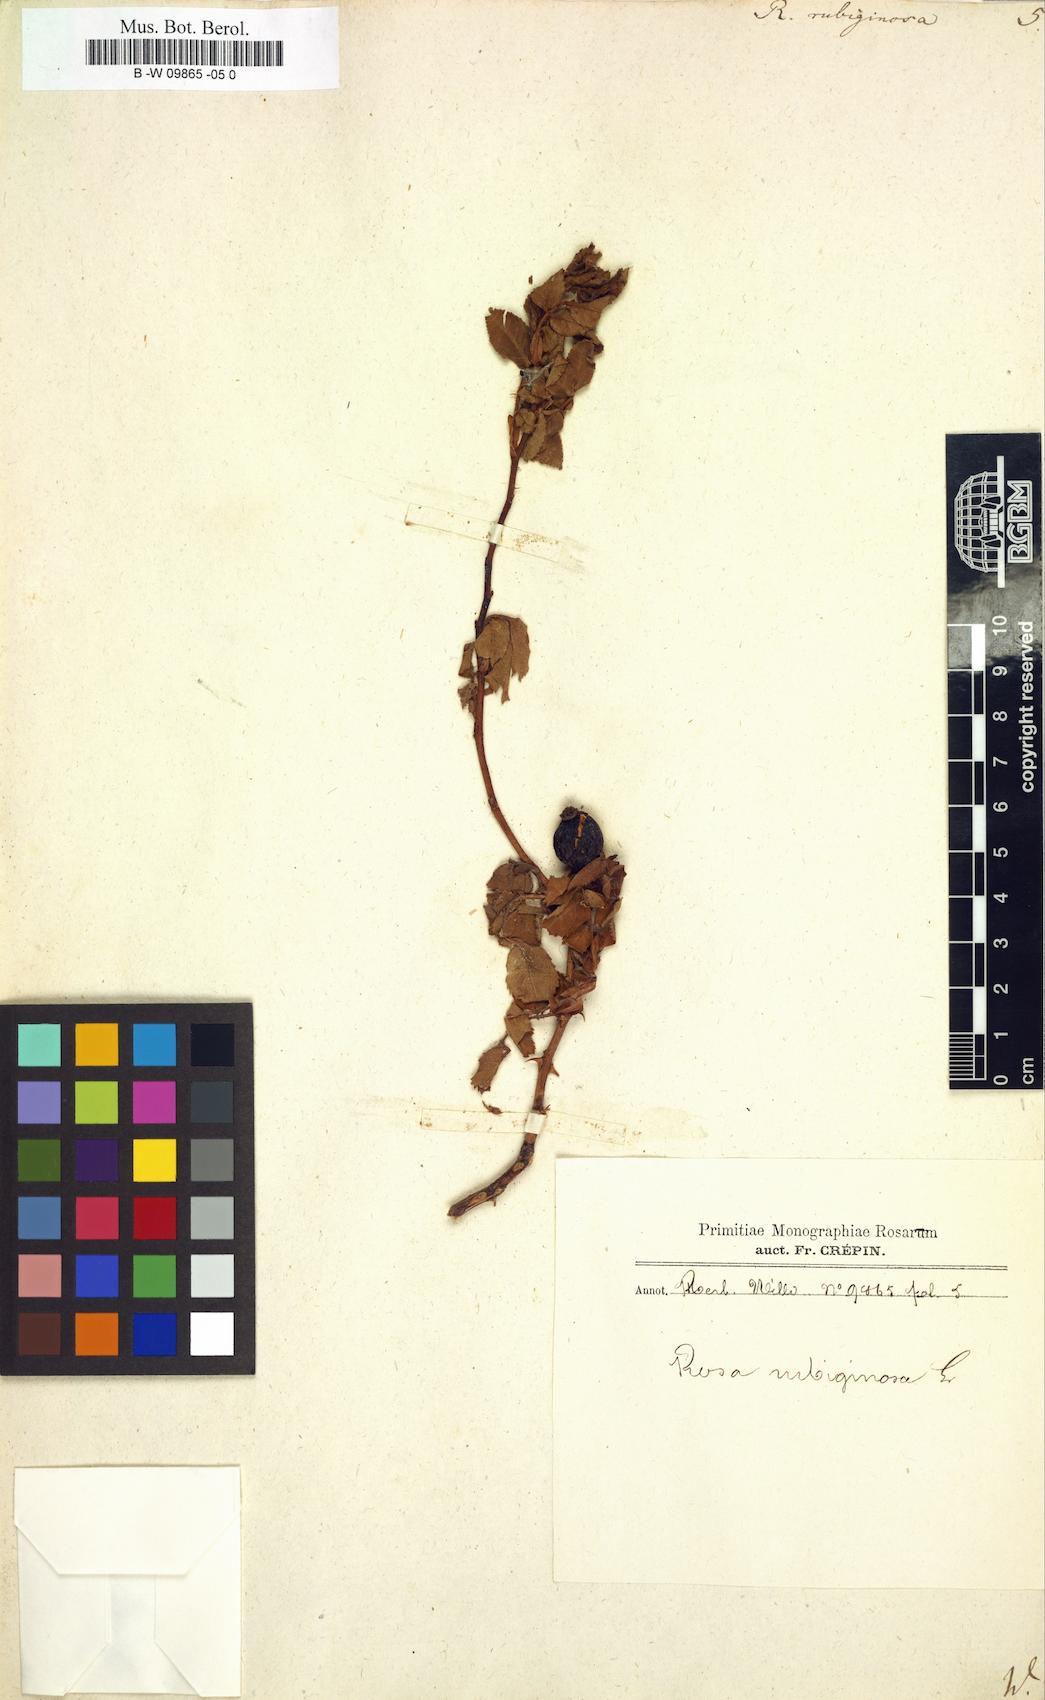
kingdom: Plantae
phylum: Tracheophyta
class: Magnoliopsida
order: Rosales
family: Rosaceae
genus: Rosa
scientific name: Rosa rubiginosa
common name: Sweet-briar
